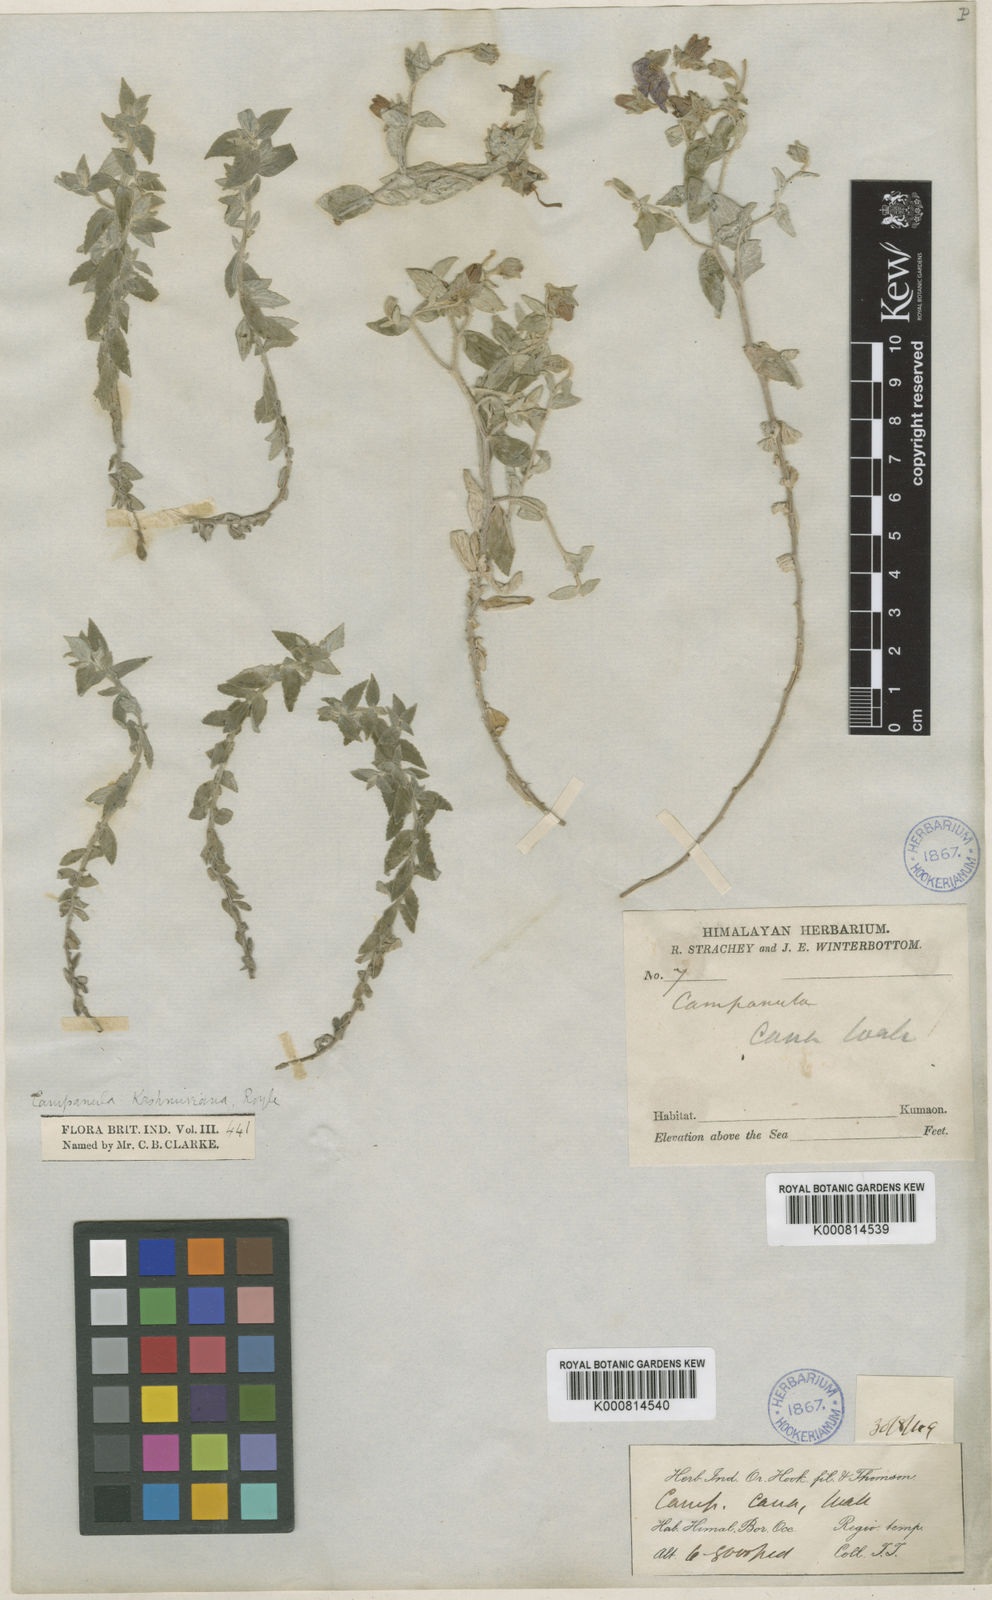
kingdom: Plantae
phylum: Tracheophyta
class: Magnoliopsida
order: Asterales
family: Campanulaceae
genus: Campanula
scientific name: Campanula pallida
